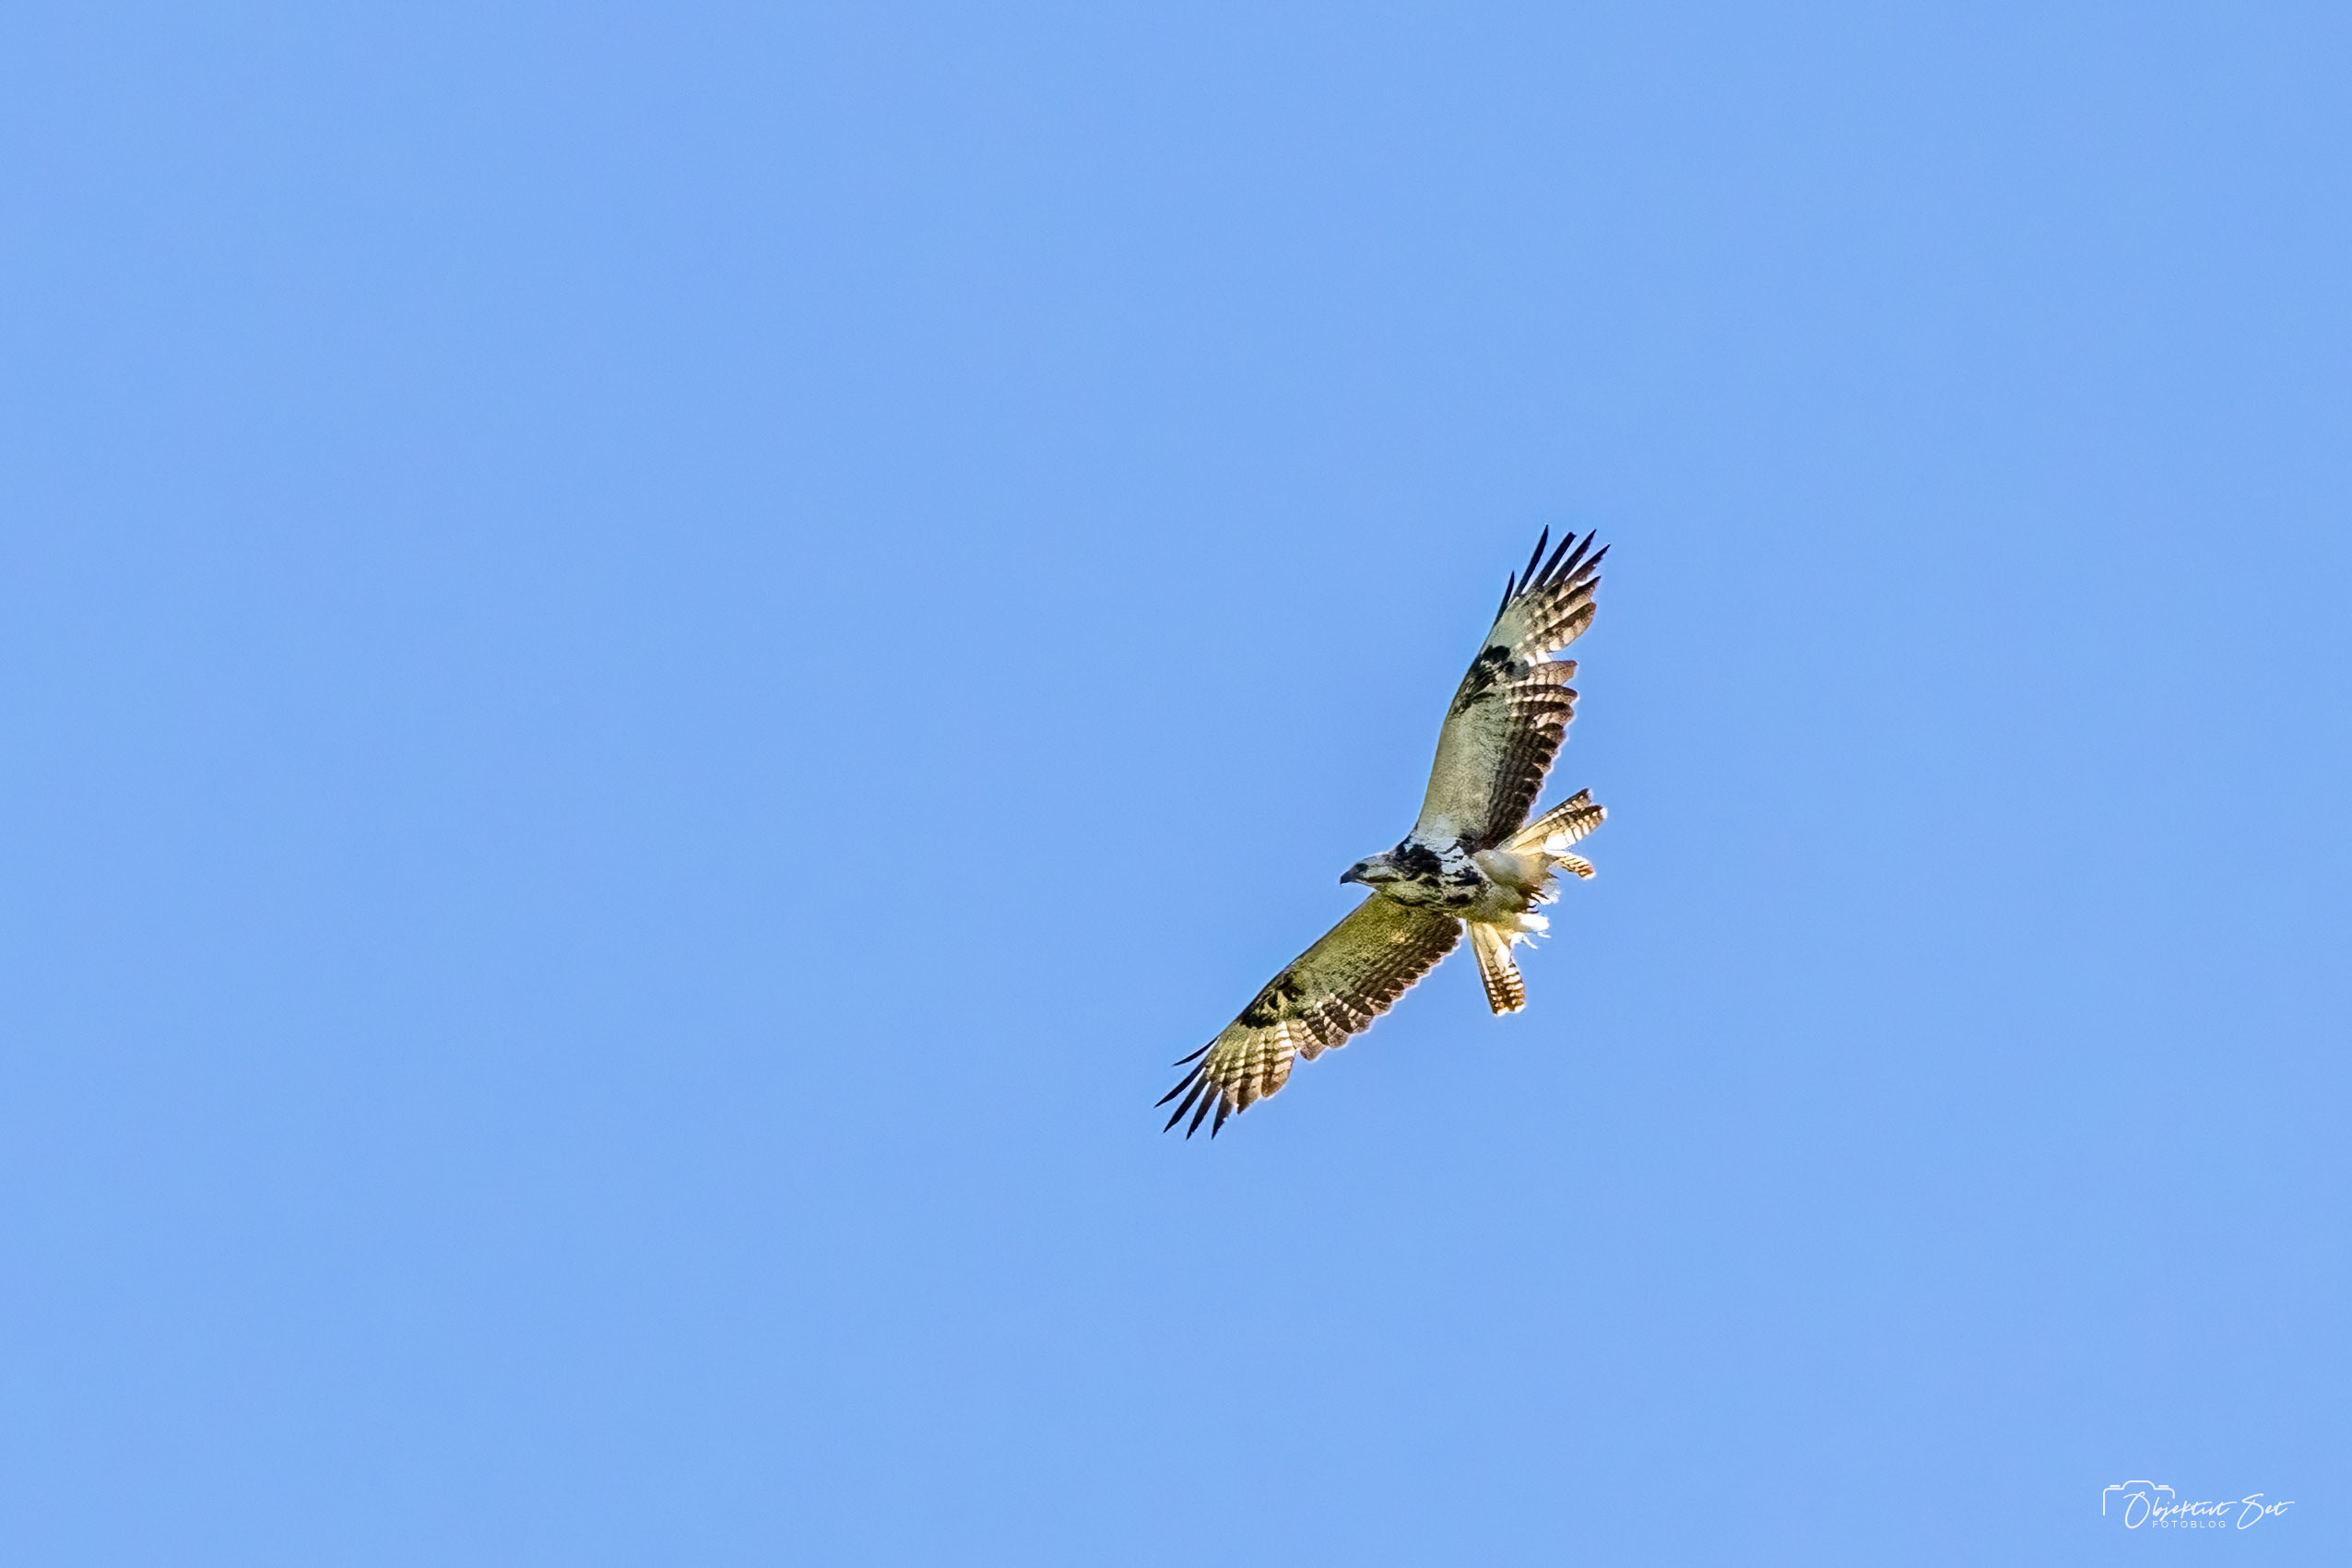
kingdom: Animalia
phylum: Chordata
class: Aves
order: Accipitriformes
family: Accipitridae
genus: Buteo
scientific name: Buteo buteo
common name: Musvåge
